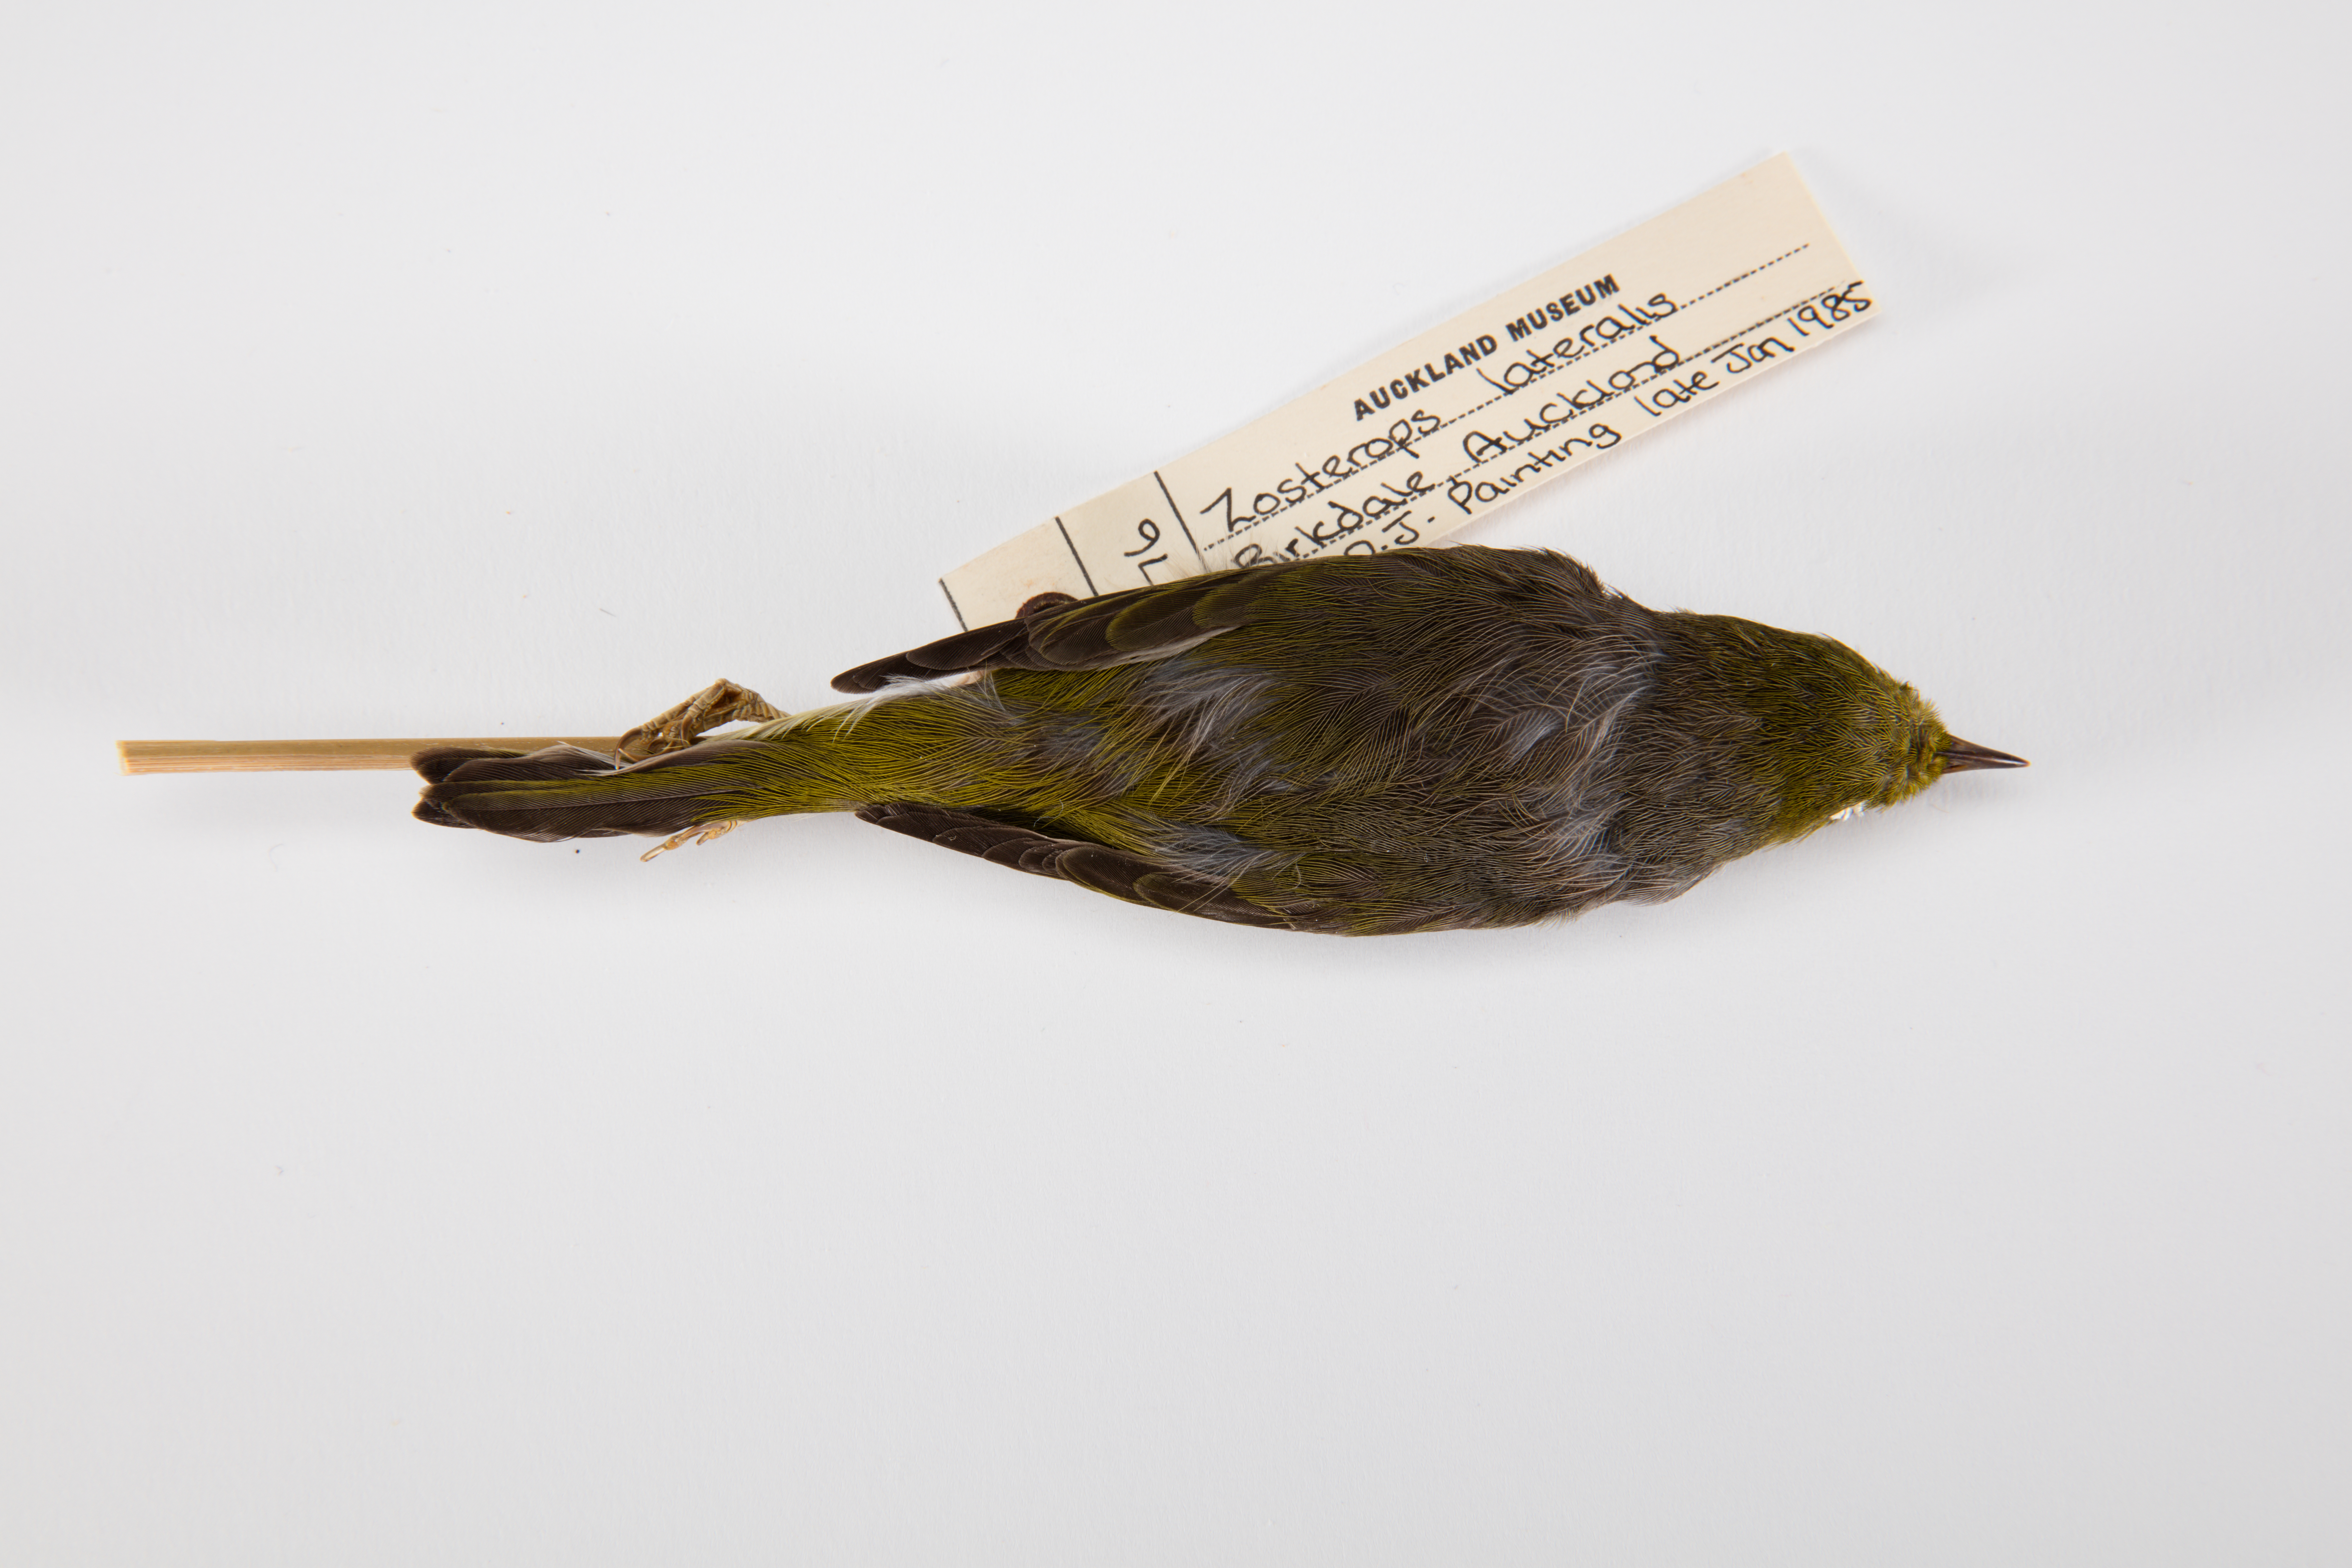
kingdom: Animalia
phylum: Chordata
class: Aves
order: Passeriformes
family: Zosteropidae
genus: Zosterops
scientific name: Zosterops lateralis
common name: Silvereye
